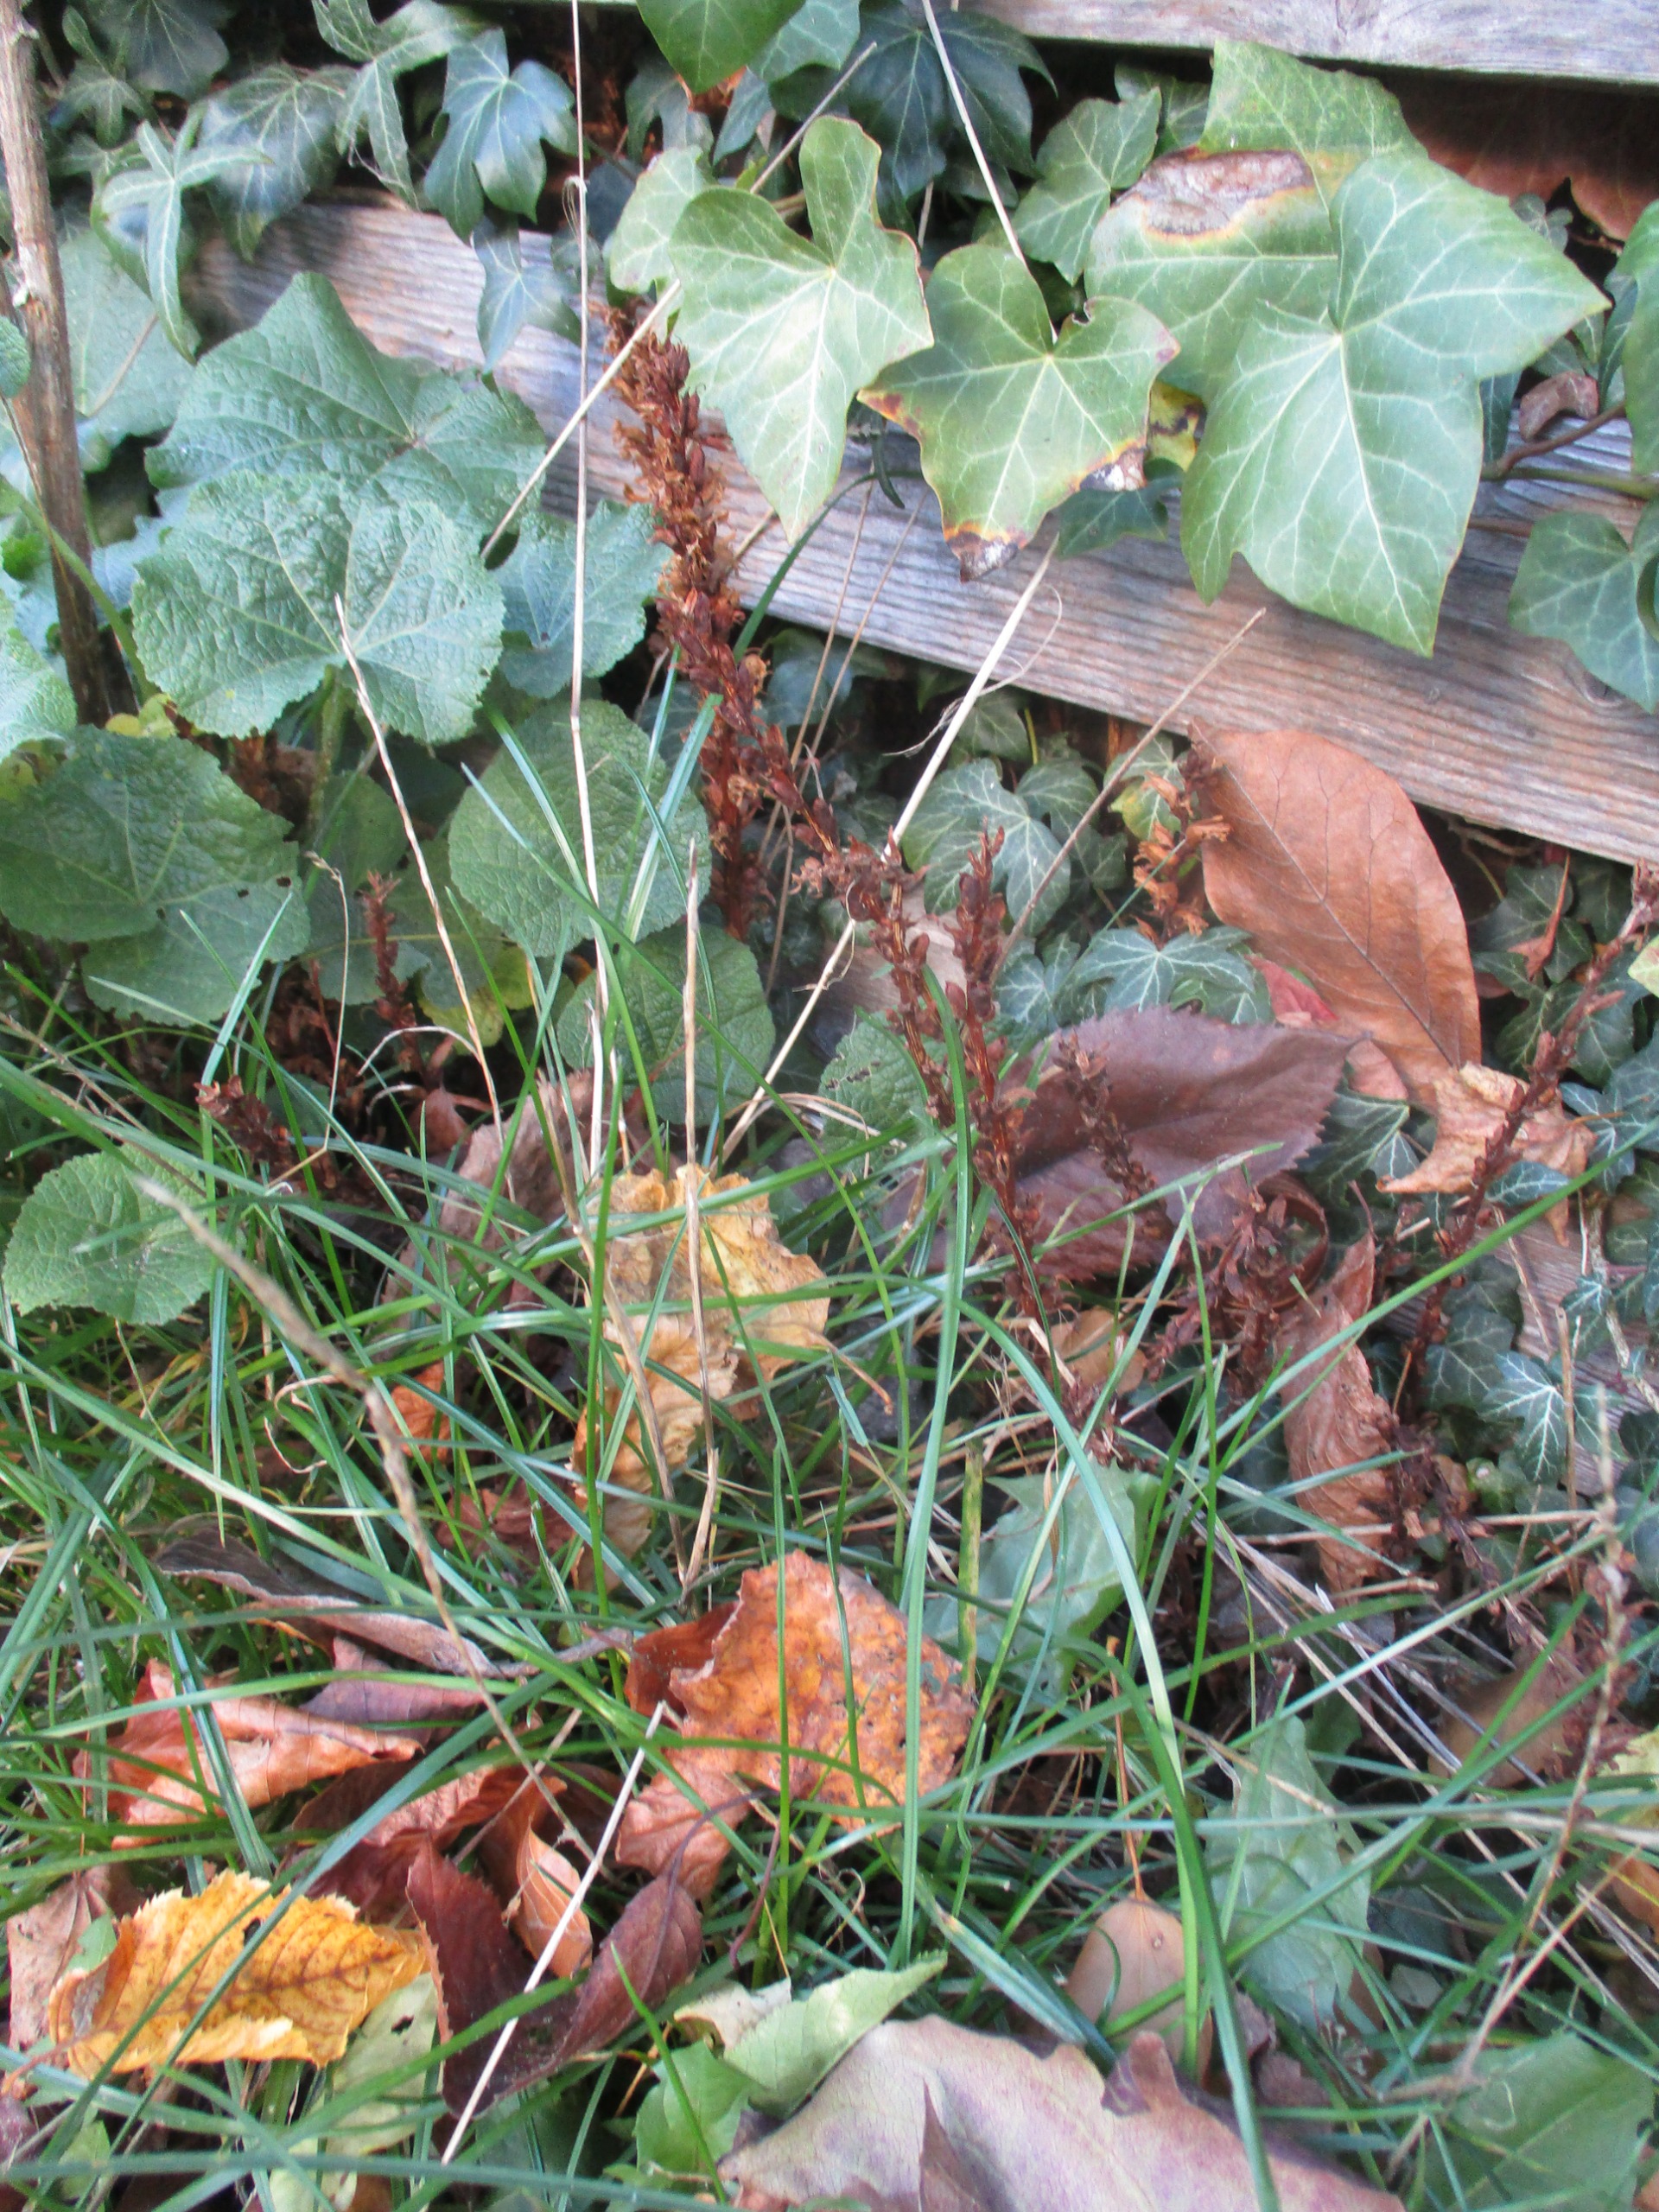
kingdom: Plantae
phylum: Tracheophyta
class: Magnoliopsida
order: Lamiales
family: Orobanchaceae
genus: Orobanche
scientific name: Orobanche hederae
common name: Vedbend-gyvelkvæler
